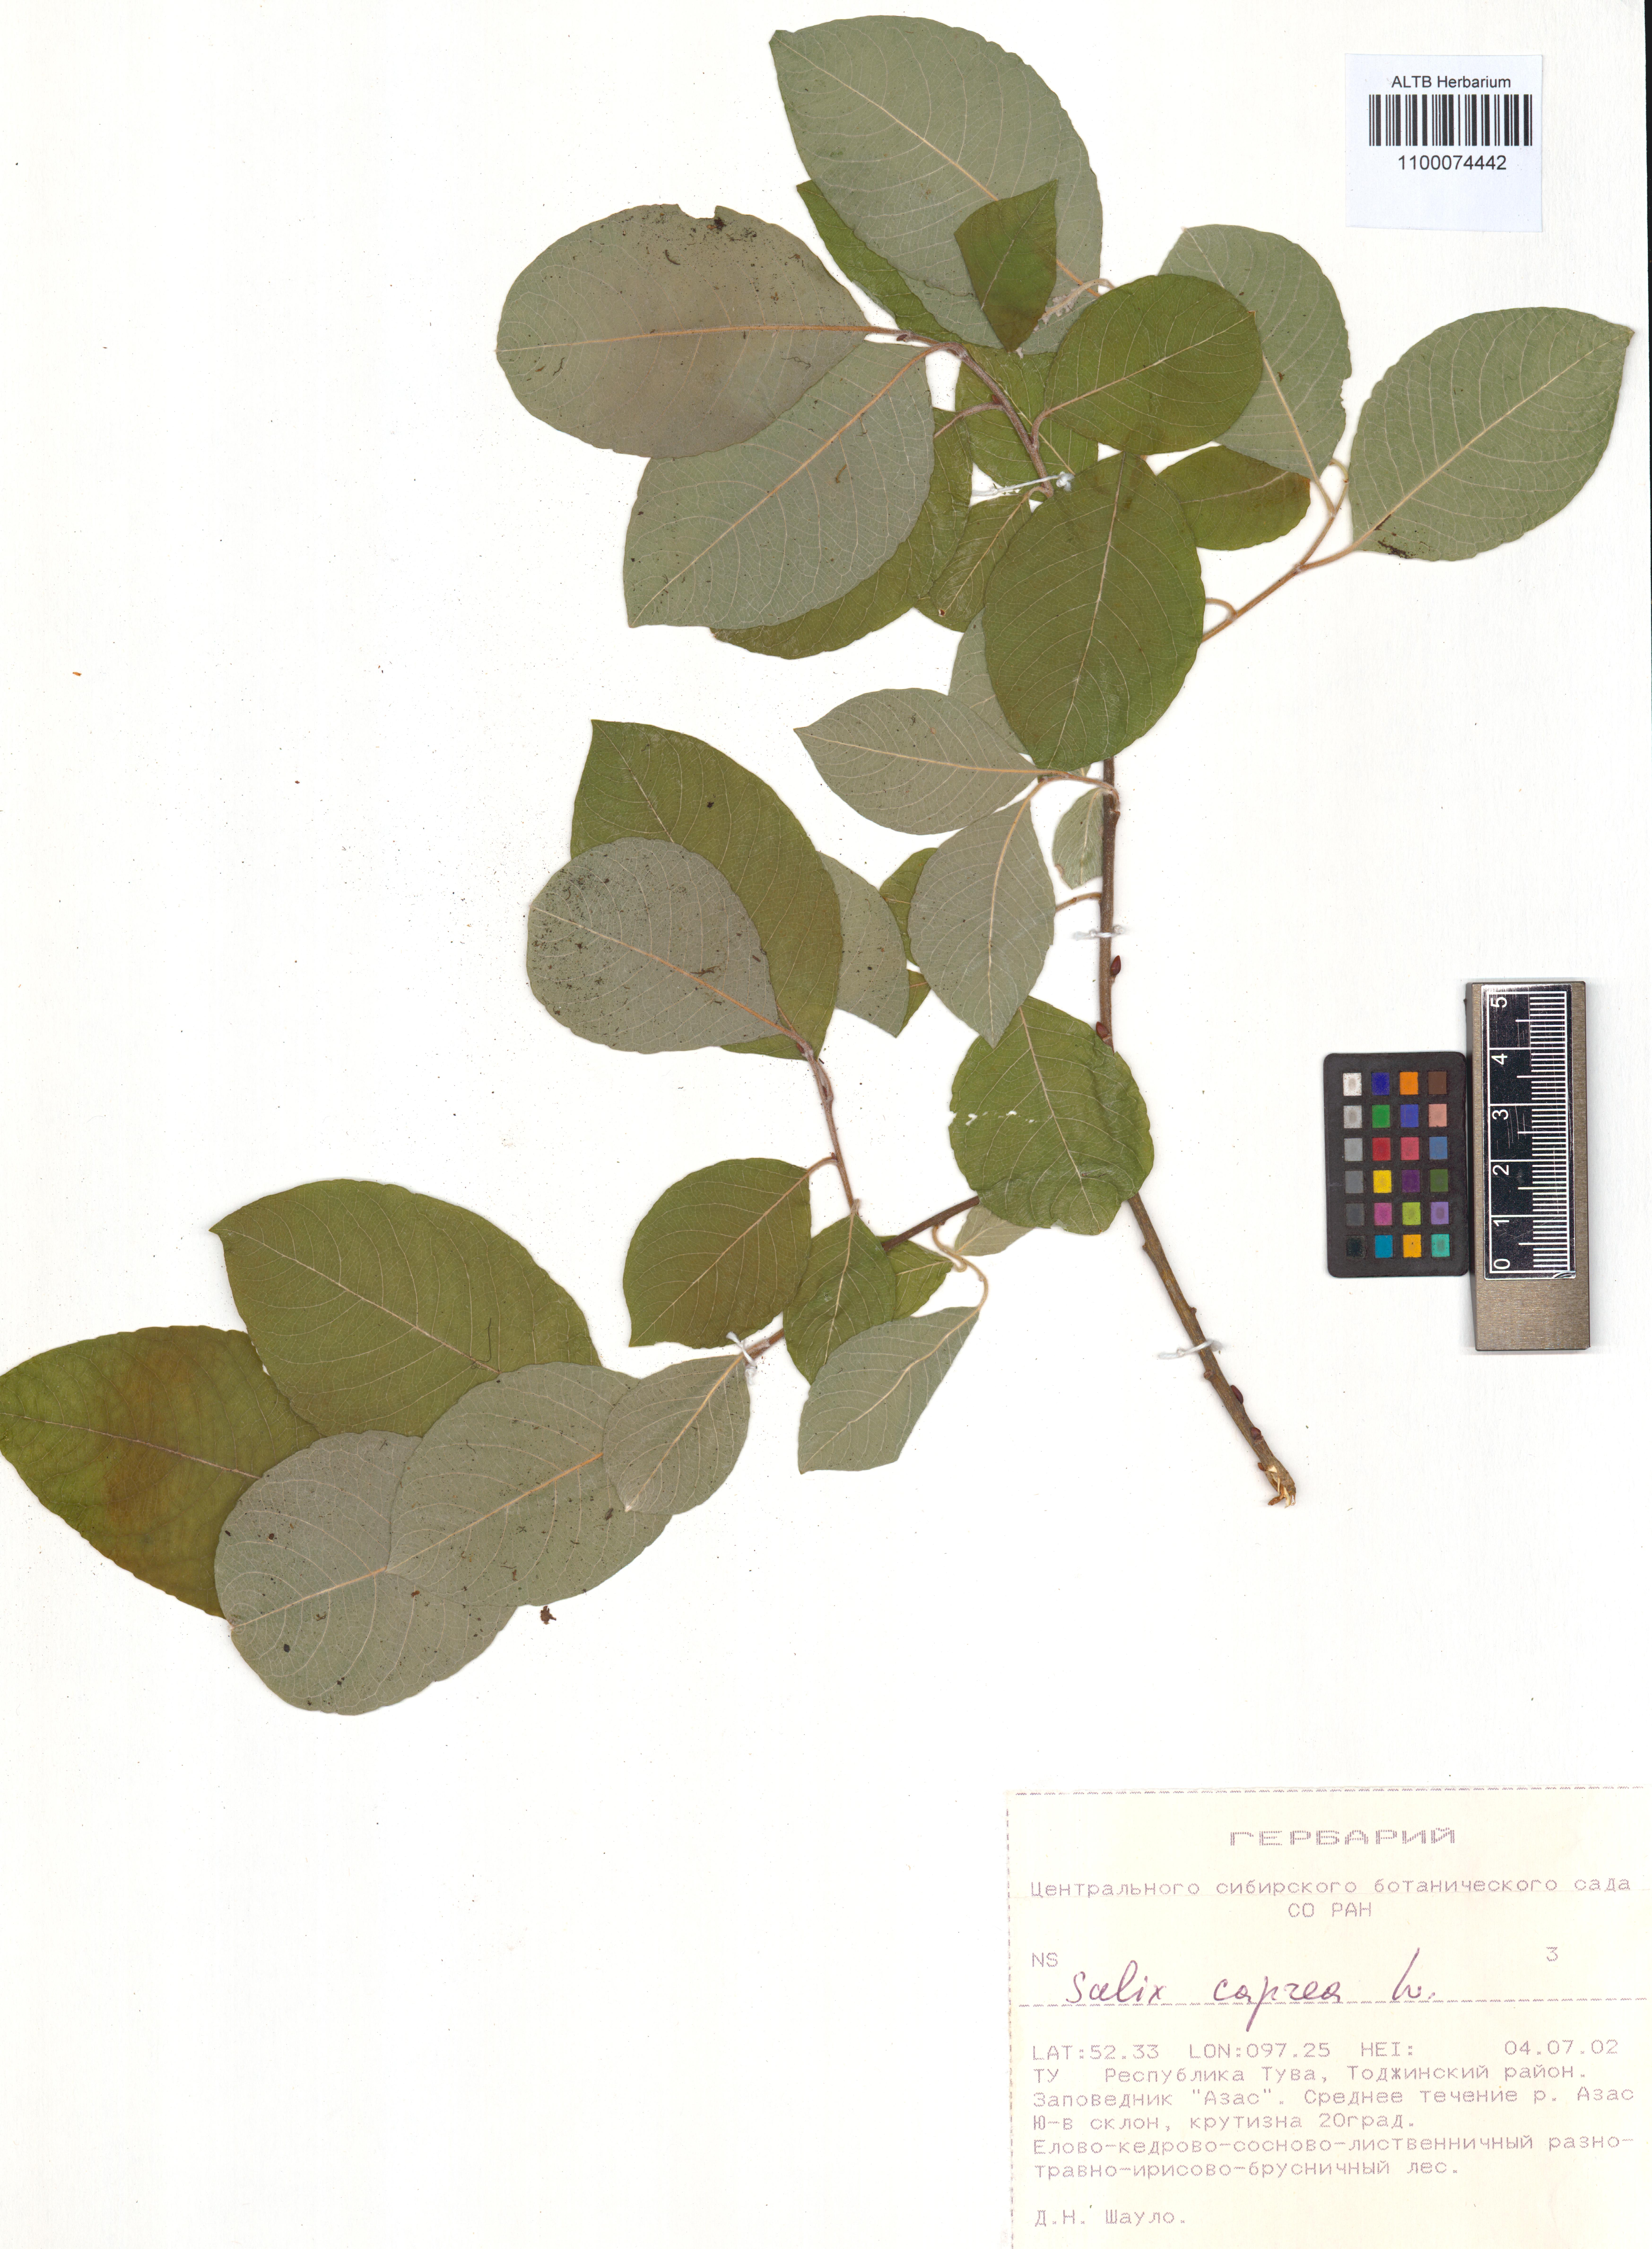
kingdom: Plantae
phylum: Tracheophyta
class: Magnoliopsida
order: Malpighiales
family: Salicaceae
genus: Salix
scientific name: Salix caprea
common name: Goat willow
